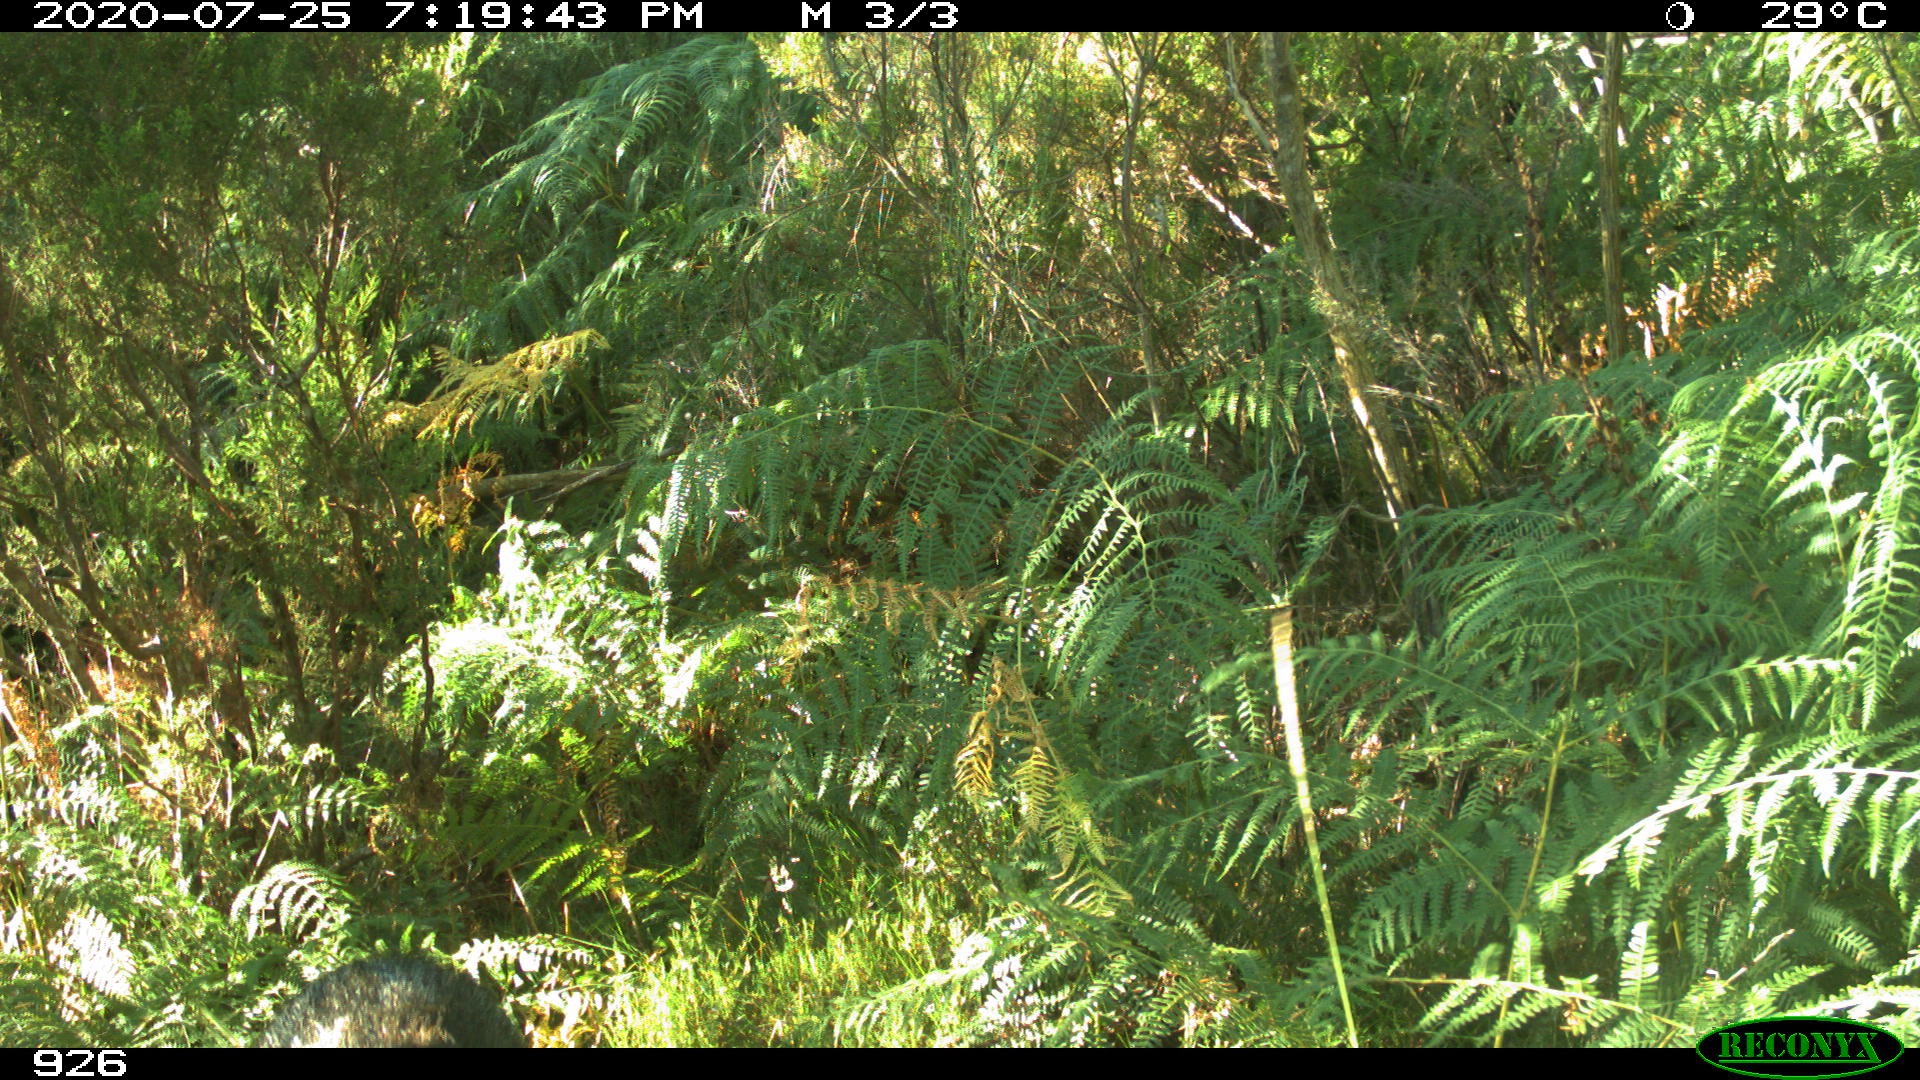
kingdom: Animalia
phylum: Chordata
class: Mammalia
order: Artiodactyla
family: Suidae
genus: Sus
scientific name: Sus scrofa
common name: Wild boar
